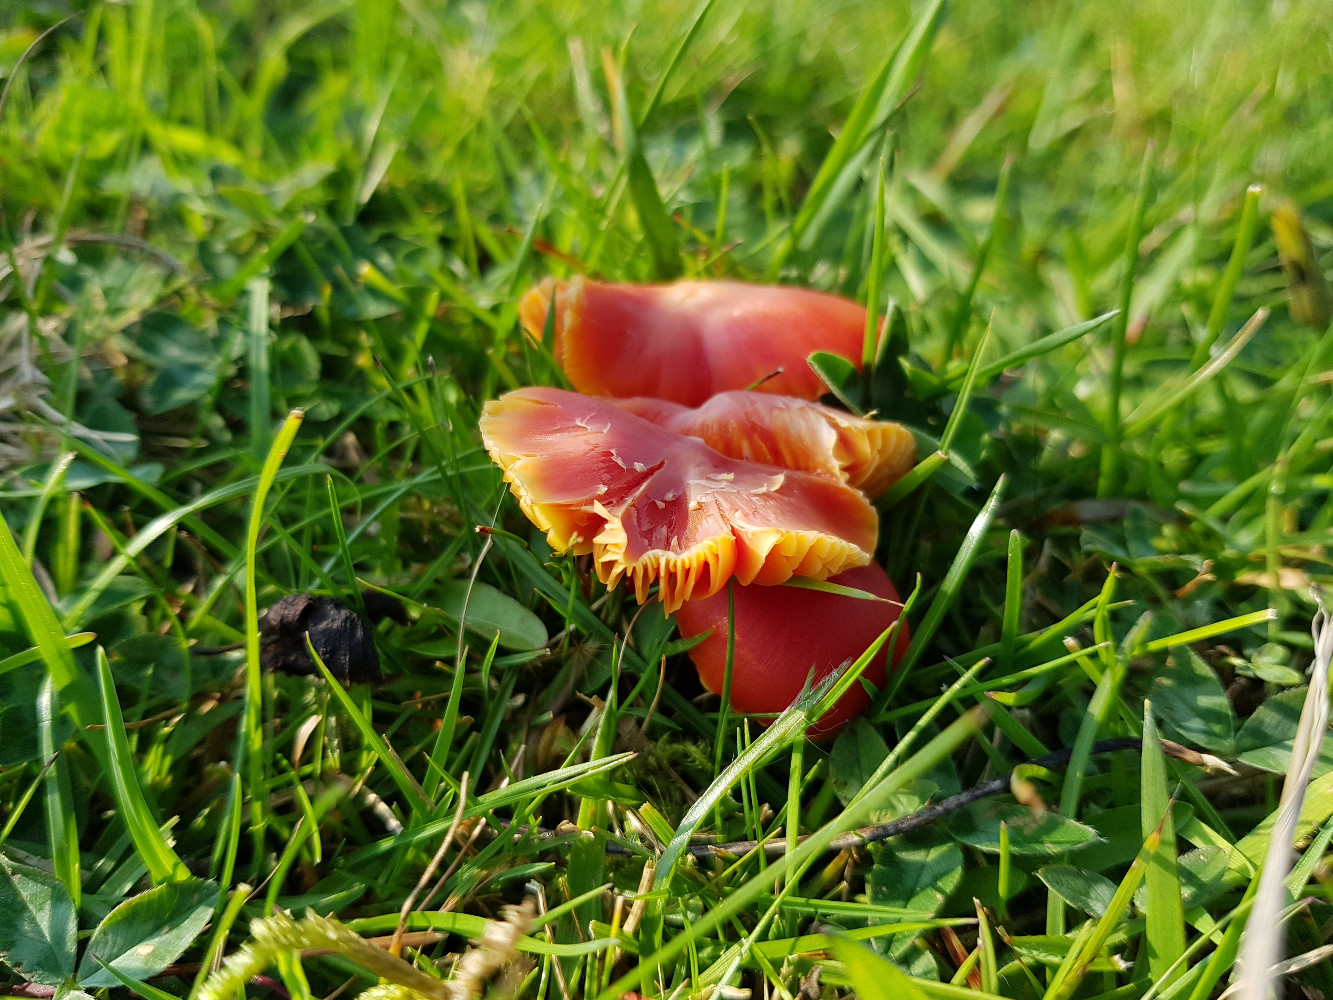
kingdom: Fungi
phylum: Basidiomycota
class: Agaricomycetes
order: Agaricales
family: Hygrophoraceae
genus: Hygrocybe
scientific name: Hygrocybe coccinea
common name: cinnober-vokshat
